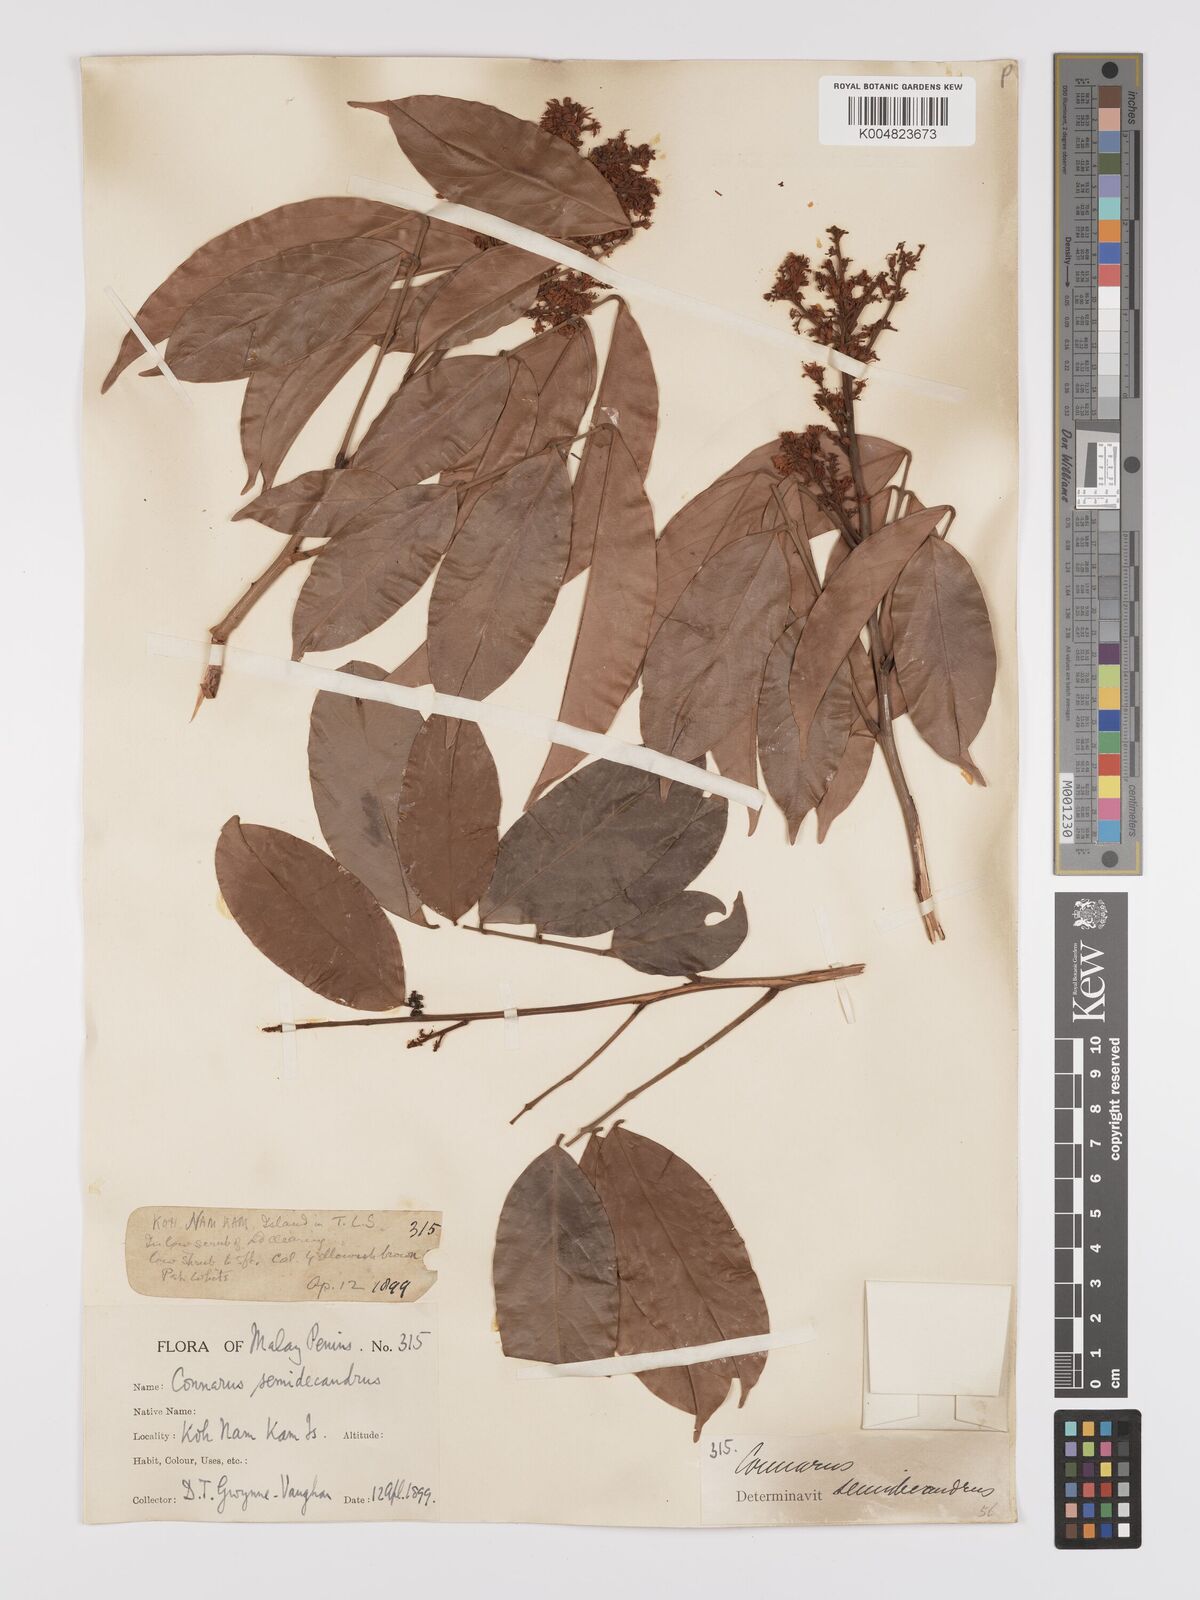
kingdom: Plantae
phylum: Tracheophyta
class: Magnoliopsida
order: Oxalidales
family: Connaraceae
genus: Connarus
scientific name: Connarus semidecandrus
